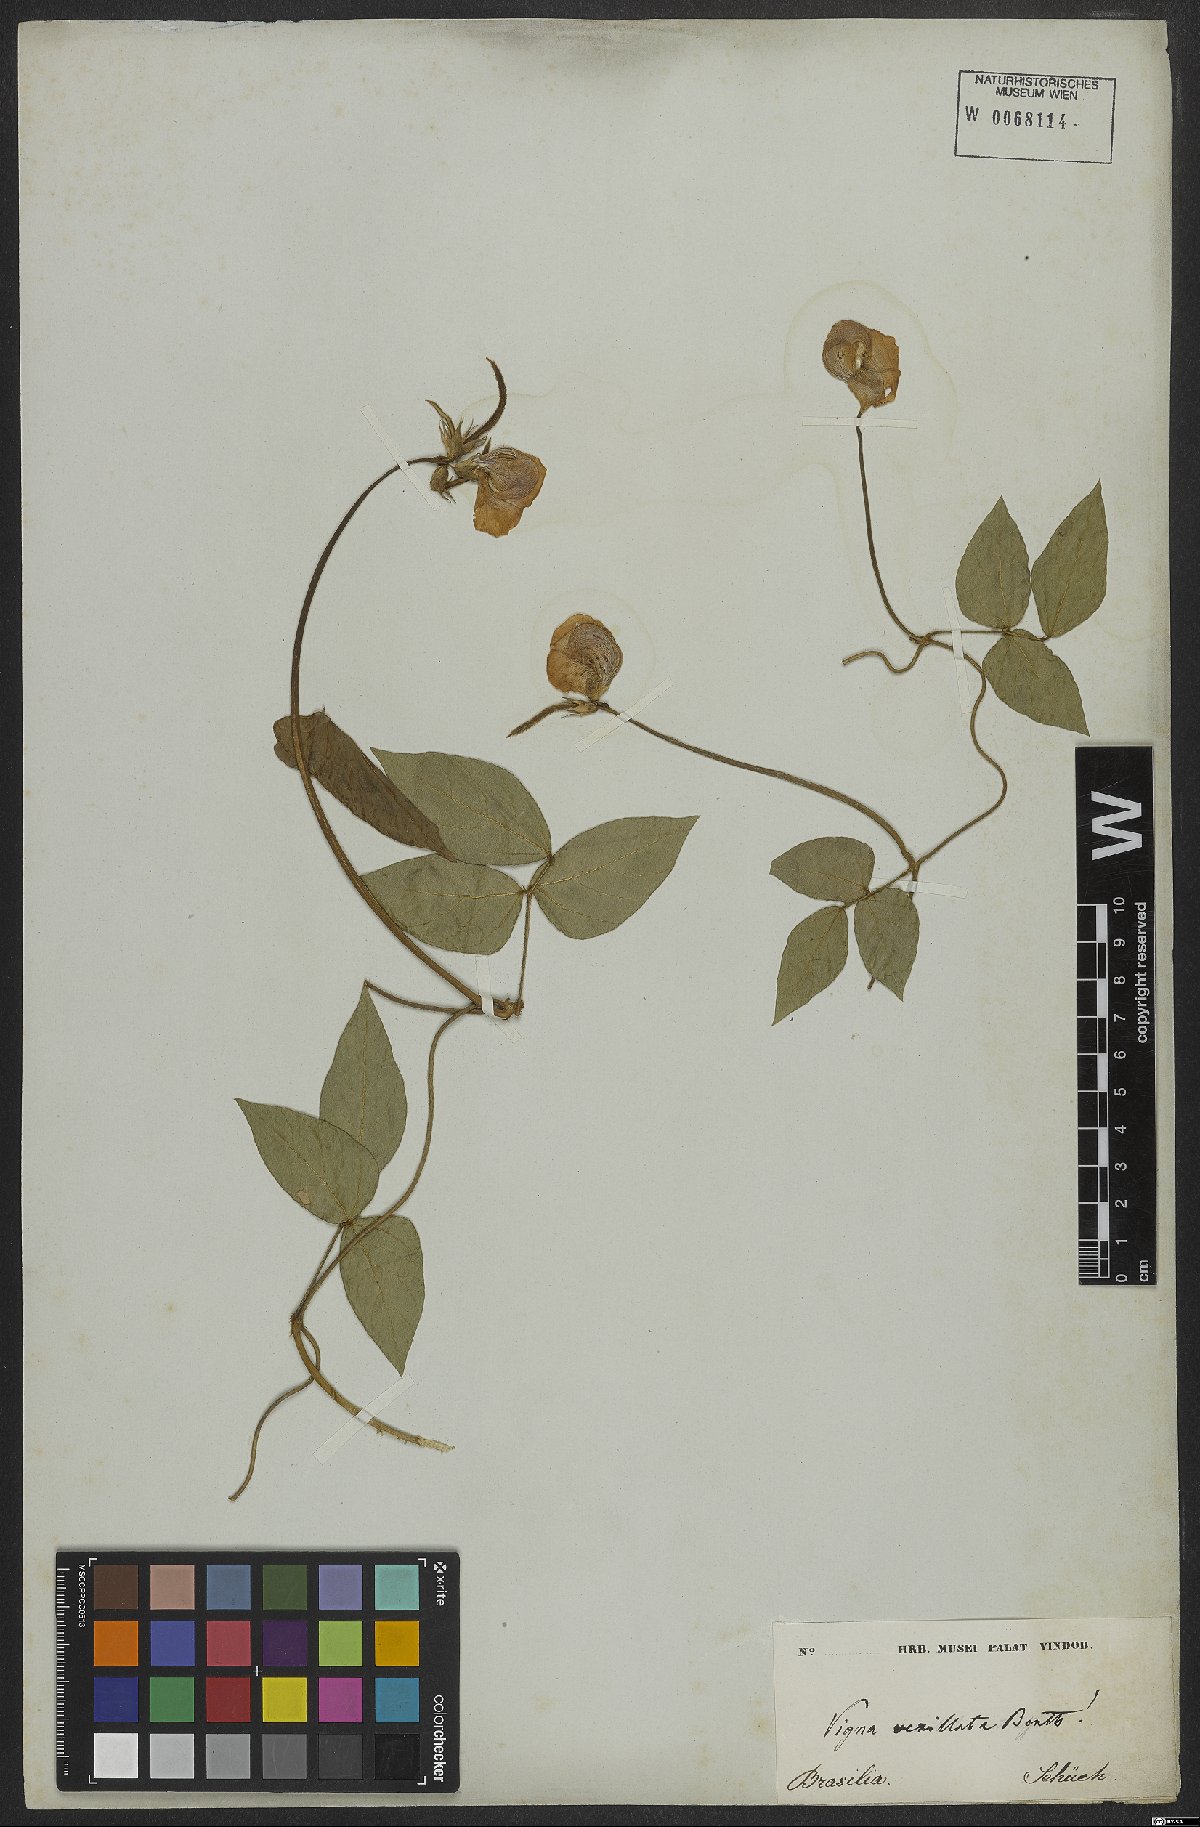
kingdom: Plantae
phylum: Tracheophyta
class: Magnoliopsida
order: Fabales
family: Fabaceae
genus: Vigna
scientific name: Vigna vexillata
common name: Zombi pea
